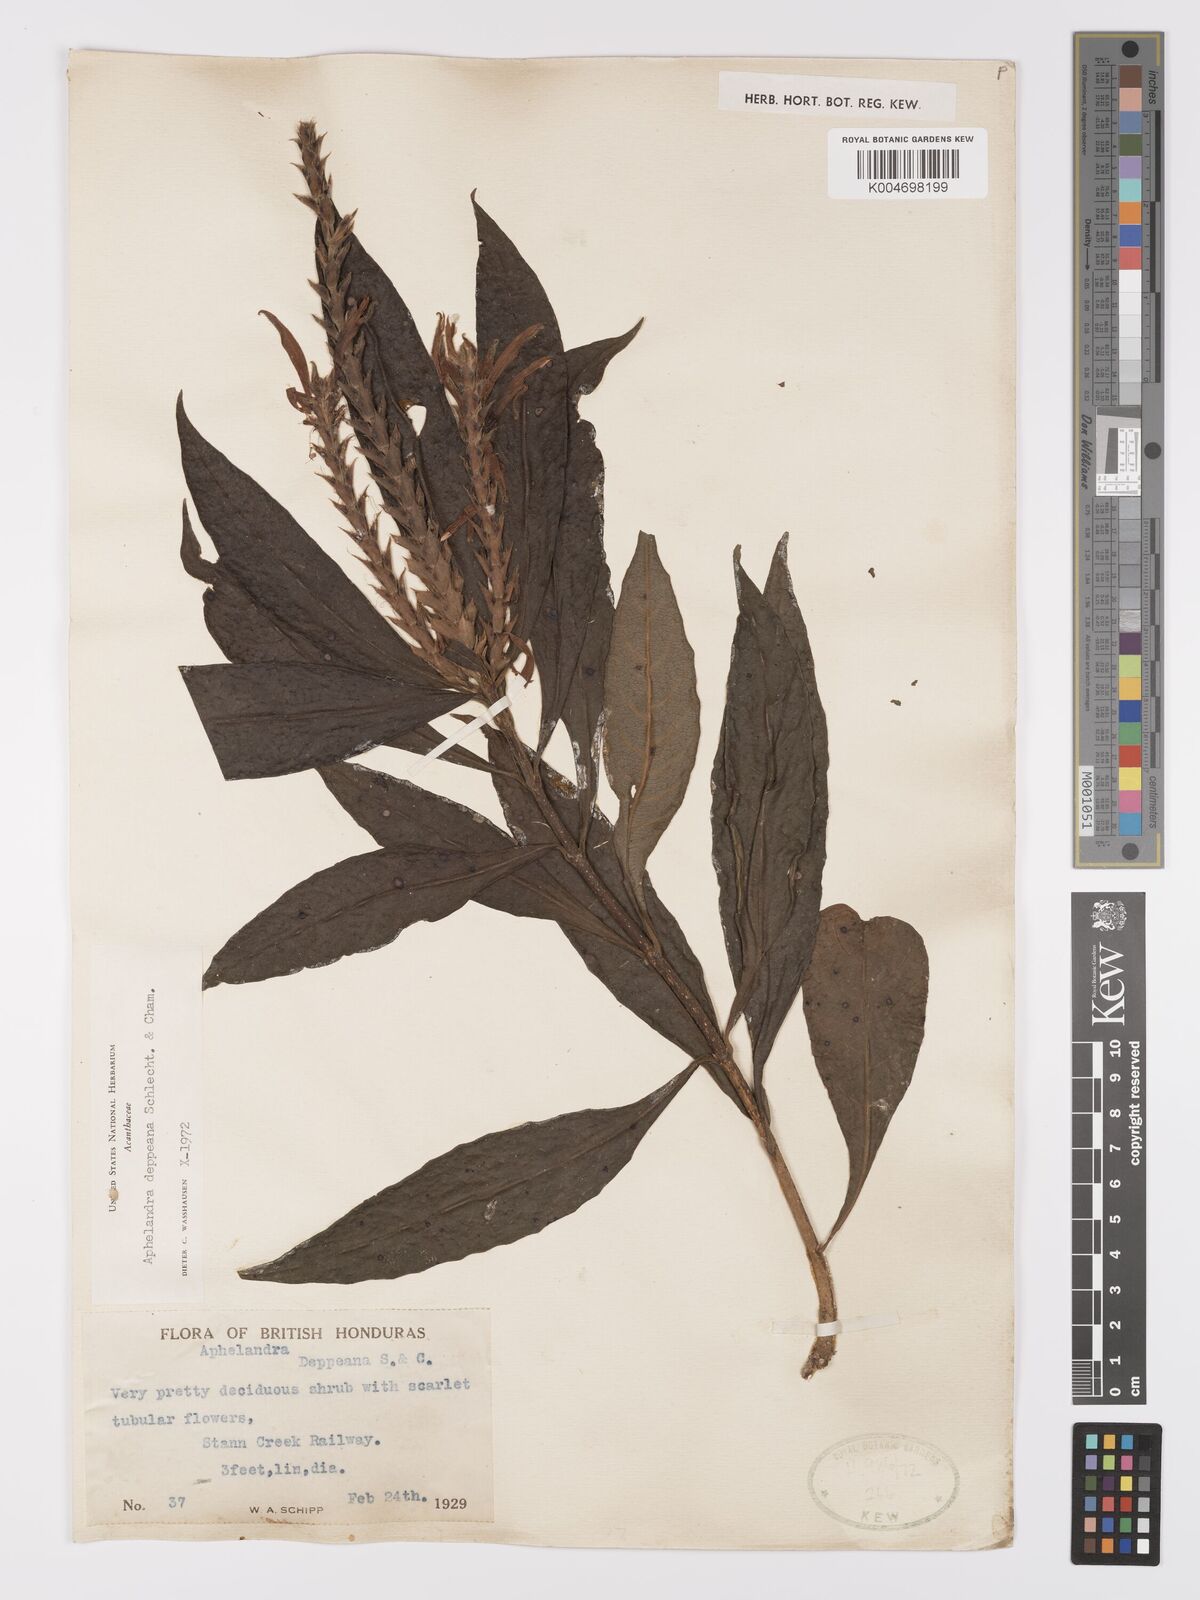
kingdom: Plantae
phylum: Tracheophyta
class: Magnoliopsida
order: Lamiales
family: Acanthaceae
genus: Aphelandra
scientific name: Aphelandra scabra
